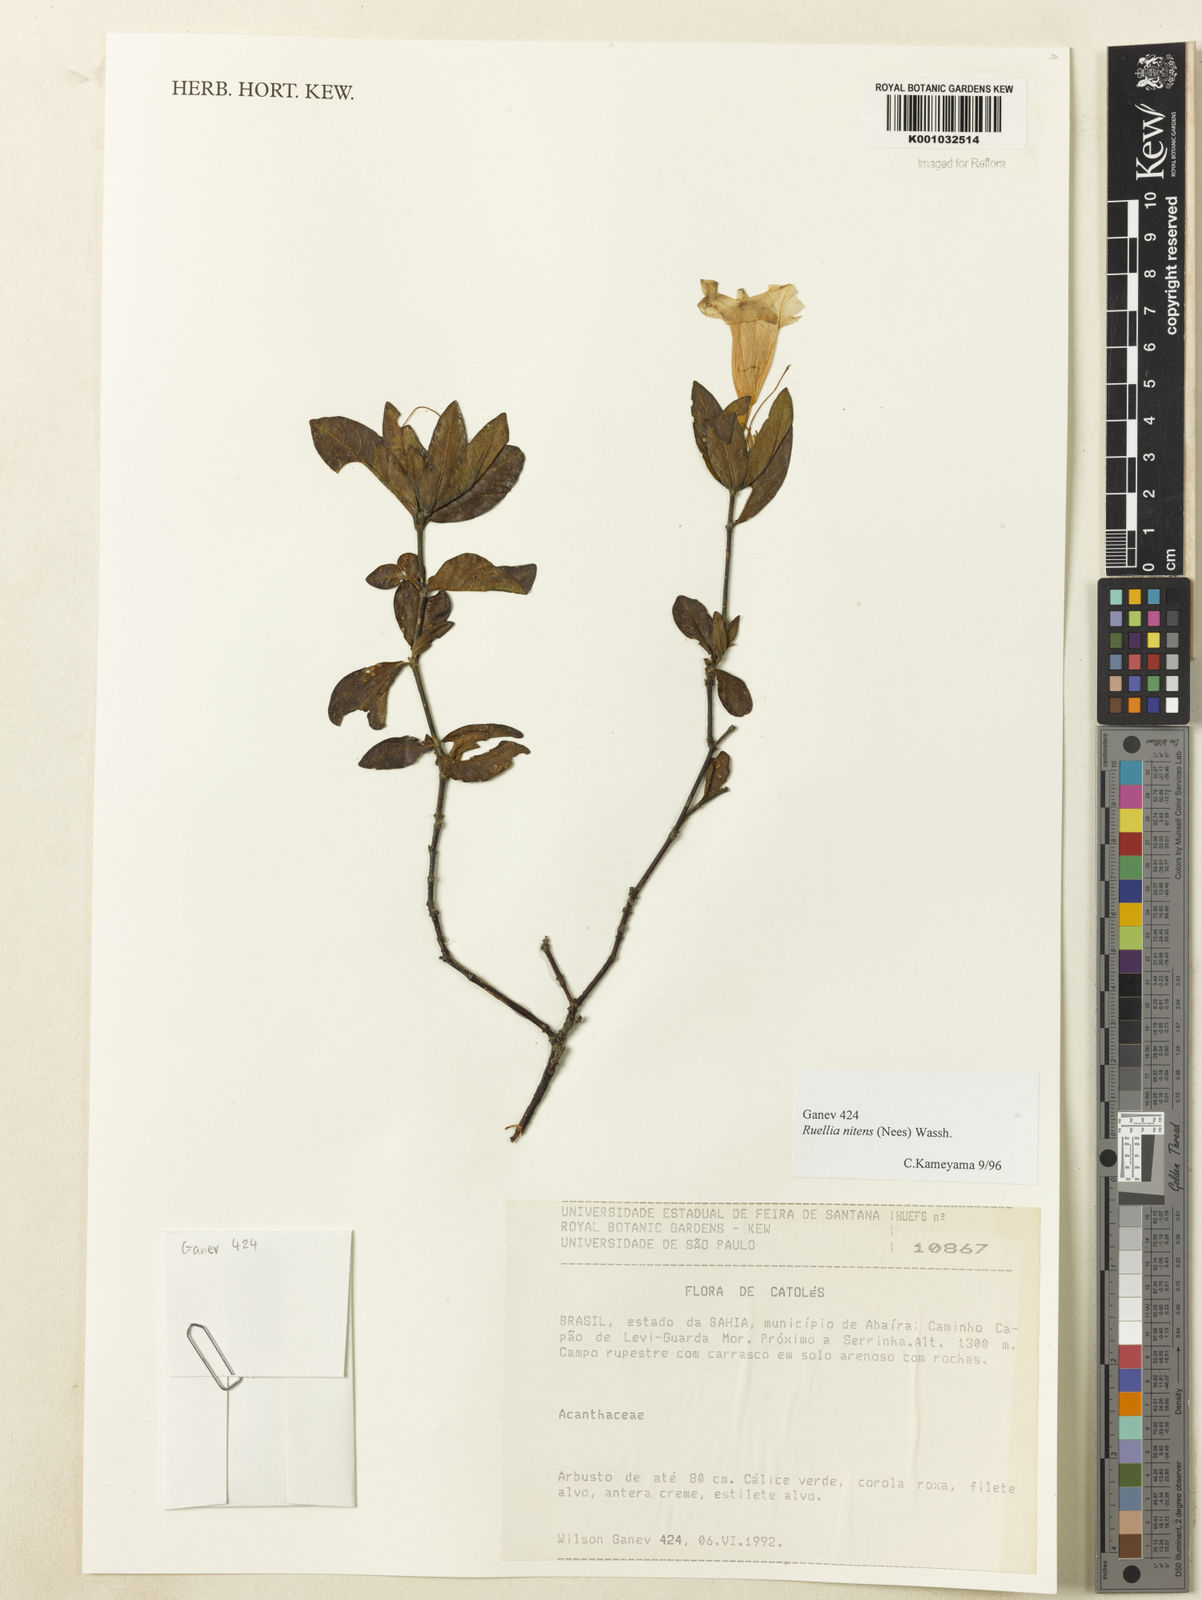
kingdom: Plantae
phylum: Tracheophyta
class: Magnoliopsida
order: Lamiales
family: Acanthaceae
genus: Ruellia
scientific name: Ruellia nitens
